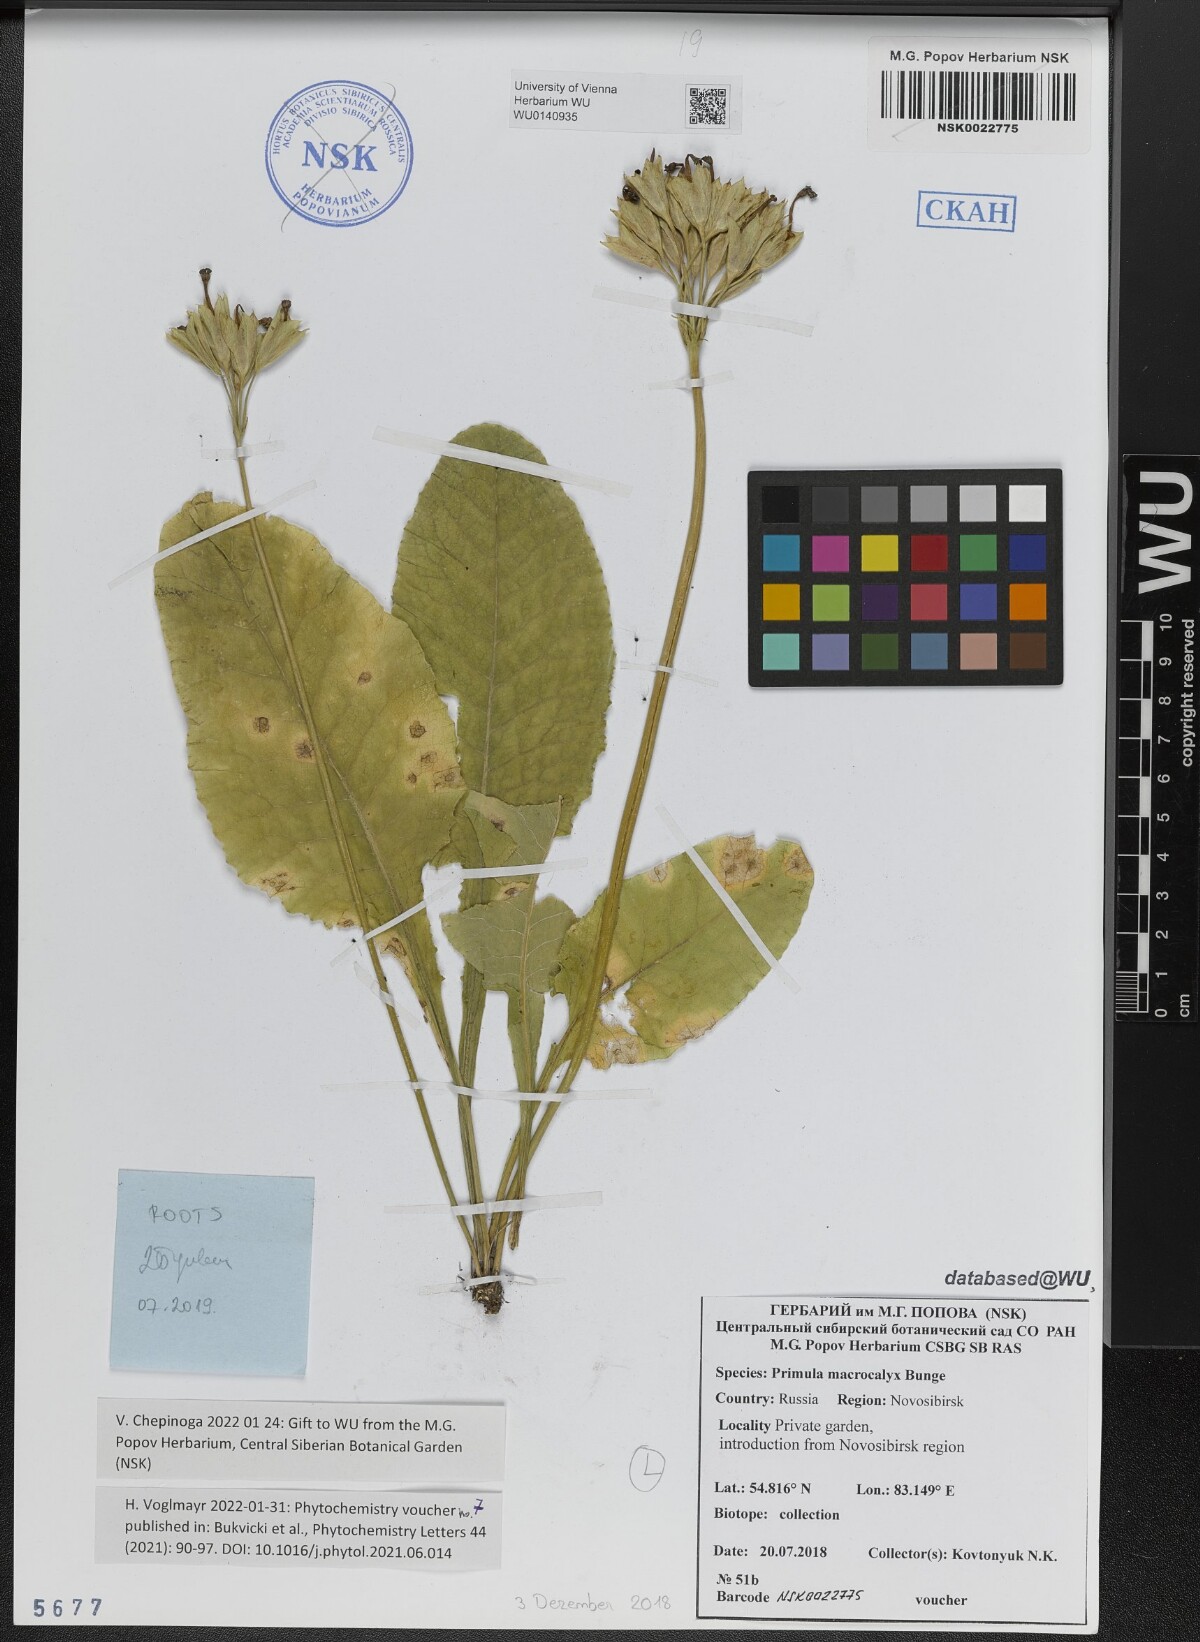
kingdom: Plantae
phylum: Tracheophyta
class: Magnoliopsida
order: Ericales
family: Primulaceae
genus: Primula
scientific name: Primula veris
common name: Cowslip
